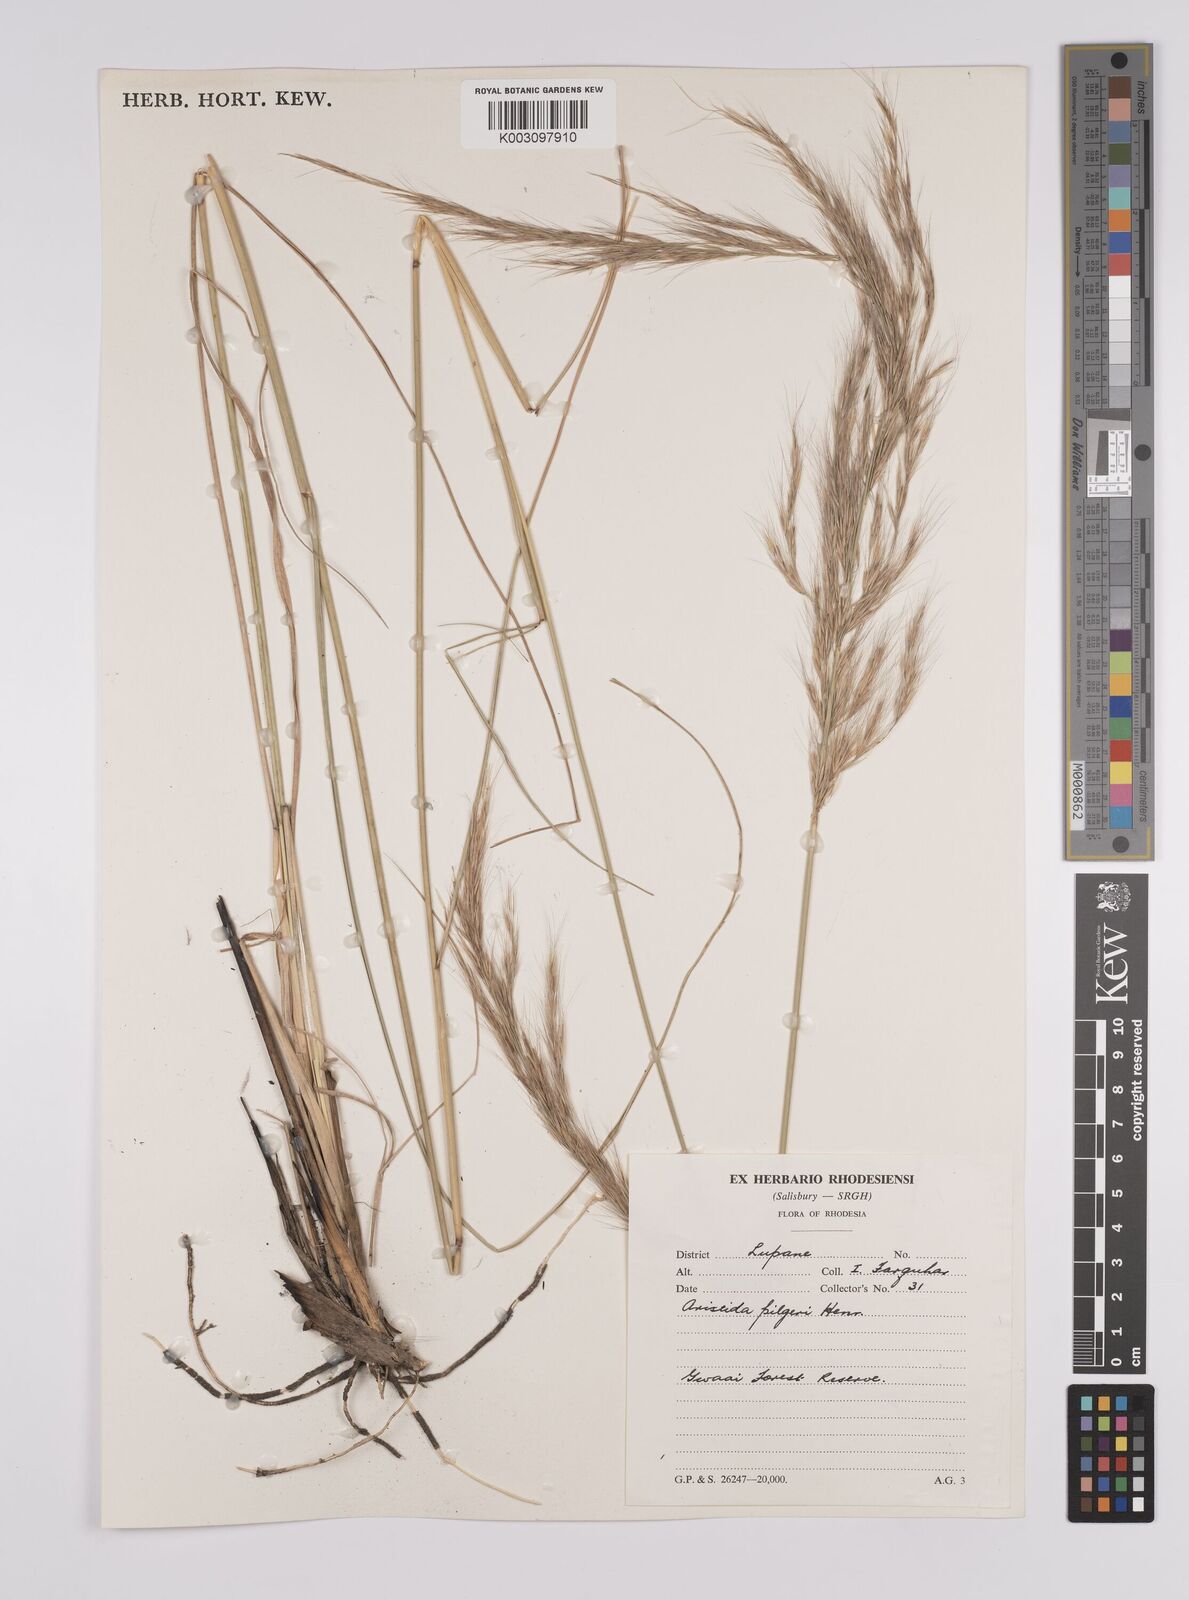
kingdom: Plantae
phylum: Tracheophyta
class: Liliopsida
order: Poales
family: Poaceae
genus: Aristida
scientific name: Aristida pilgeri
